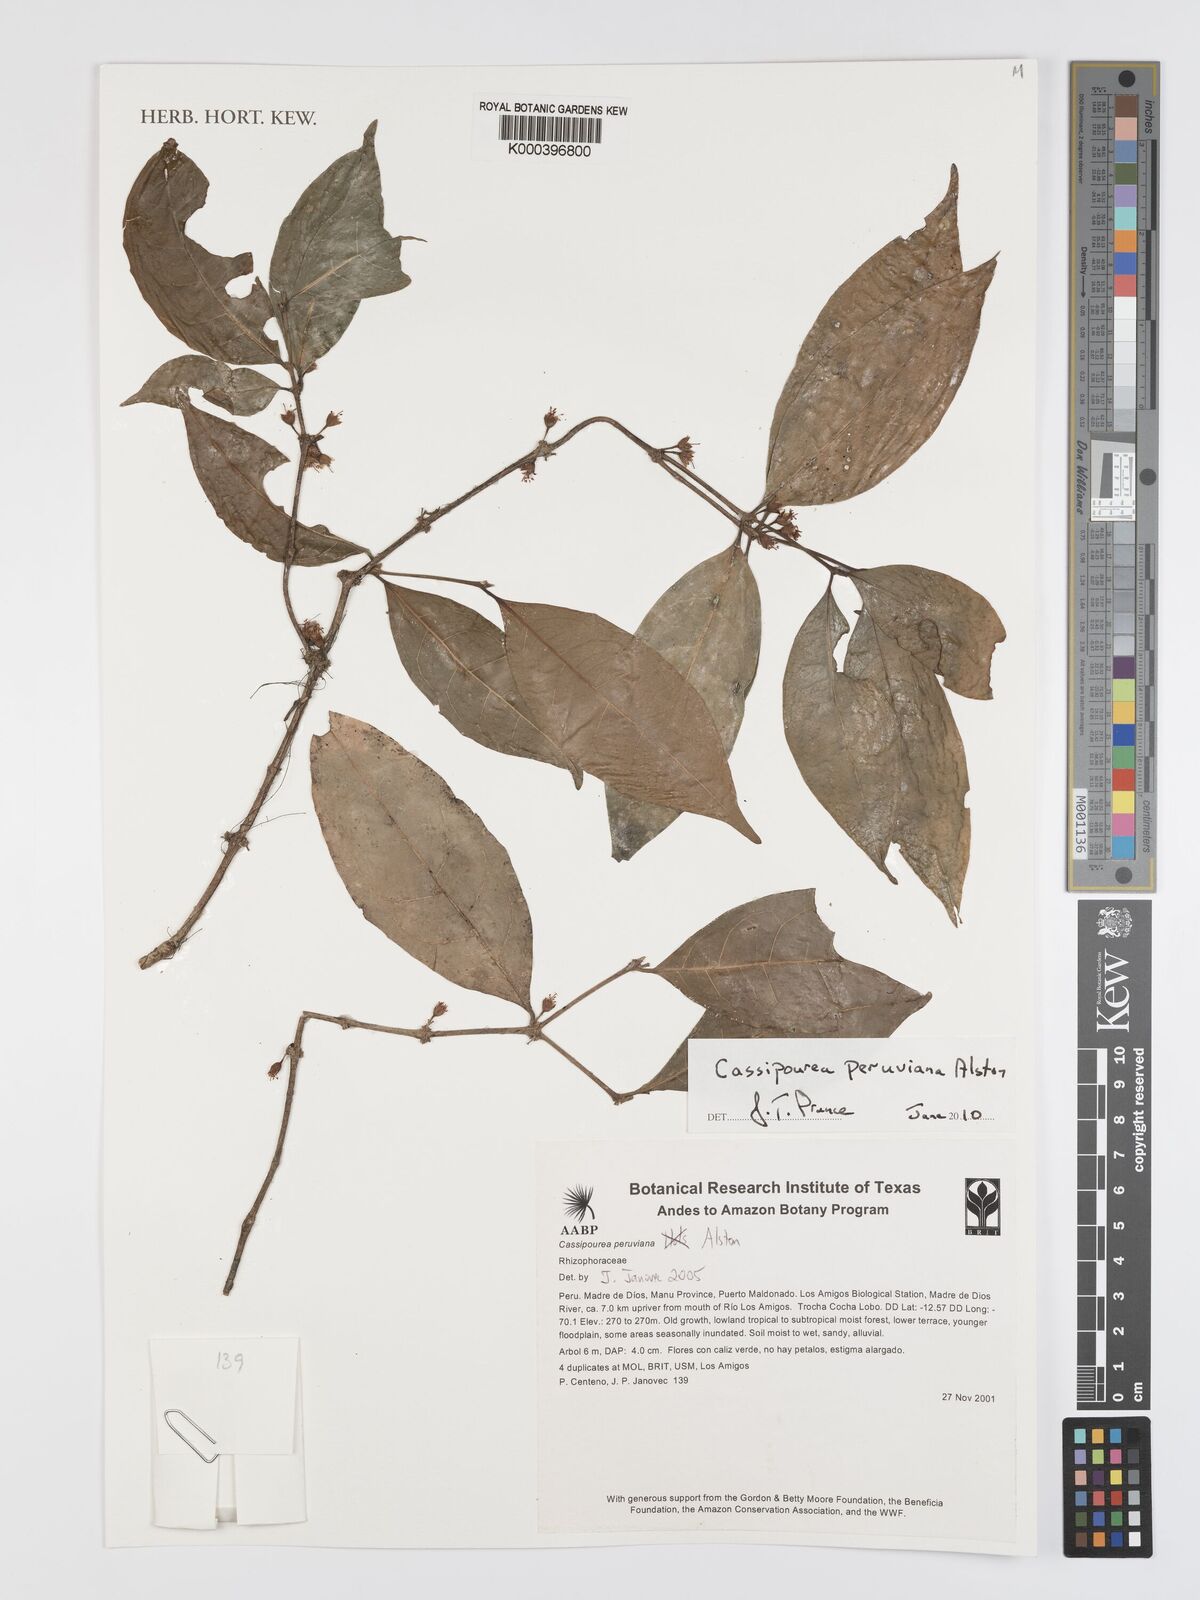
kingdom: Plantae
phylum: Tracheophyta
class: Magnoliopsida
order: Malpighiales
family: Rhizophoraceae
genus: Cassipourea
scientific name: Cassipourea peruviana
